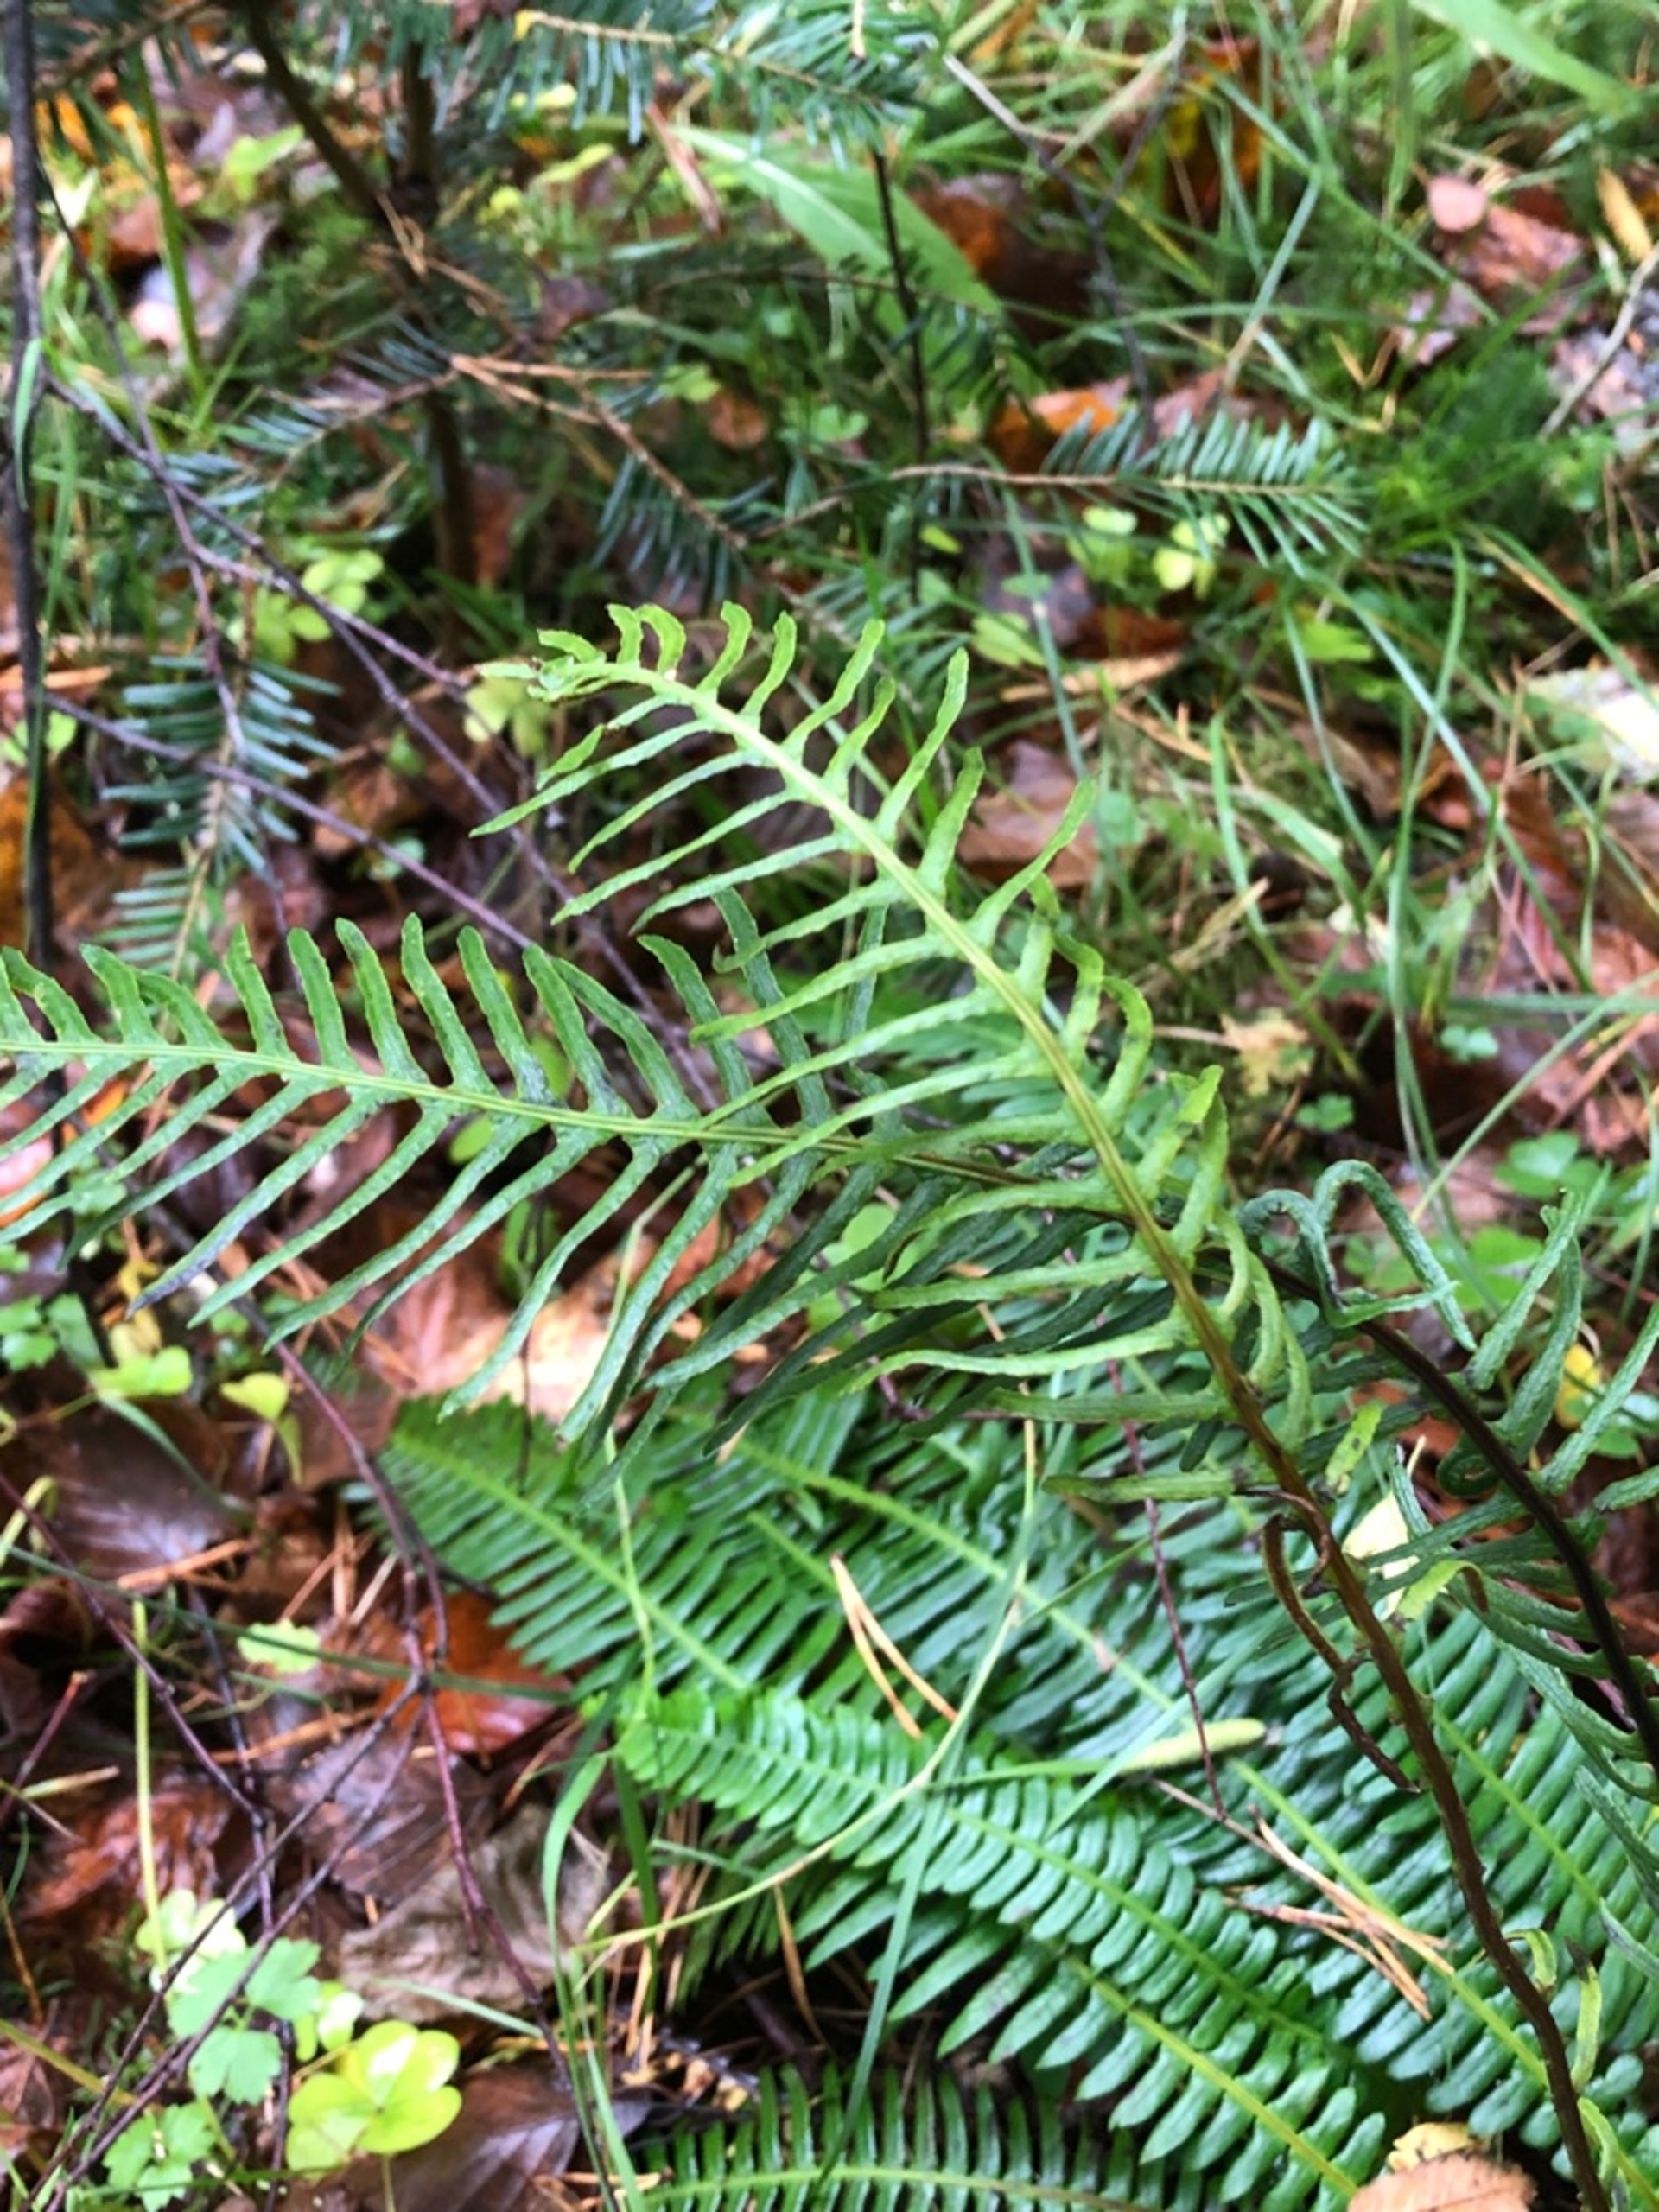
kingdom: Plantae
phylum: Tracheophyta
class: Polypodiopsida
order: Polypodiales
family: Blechnaceae
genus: Struthiopteris
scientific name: Struthiopteris spicant
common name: Kambregne
